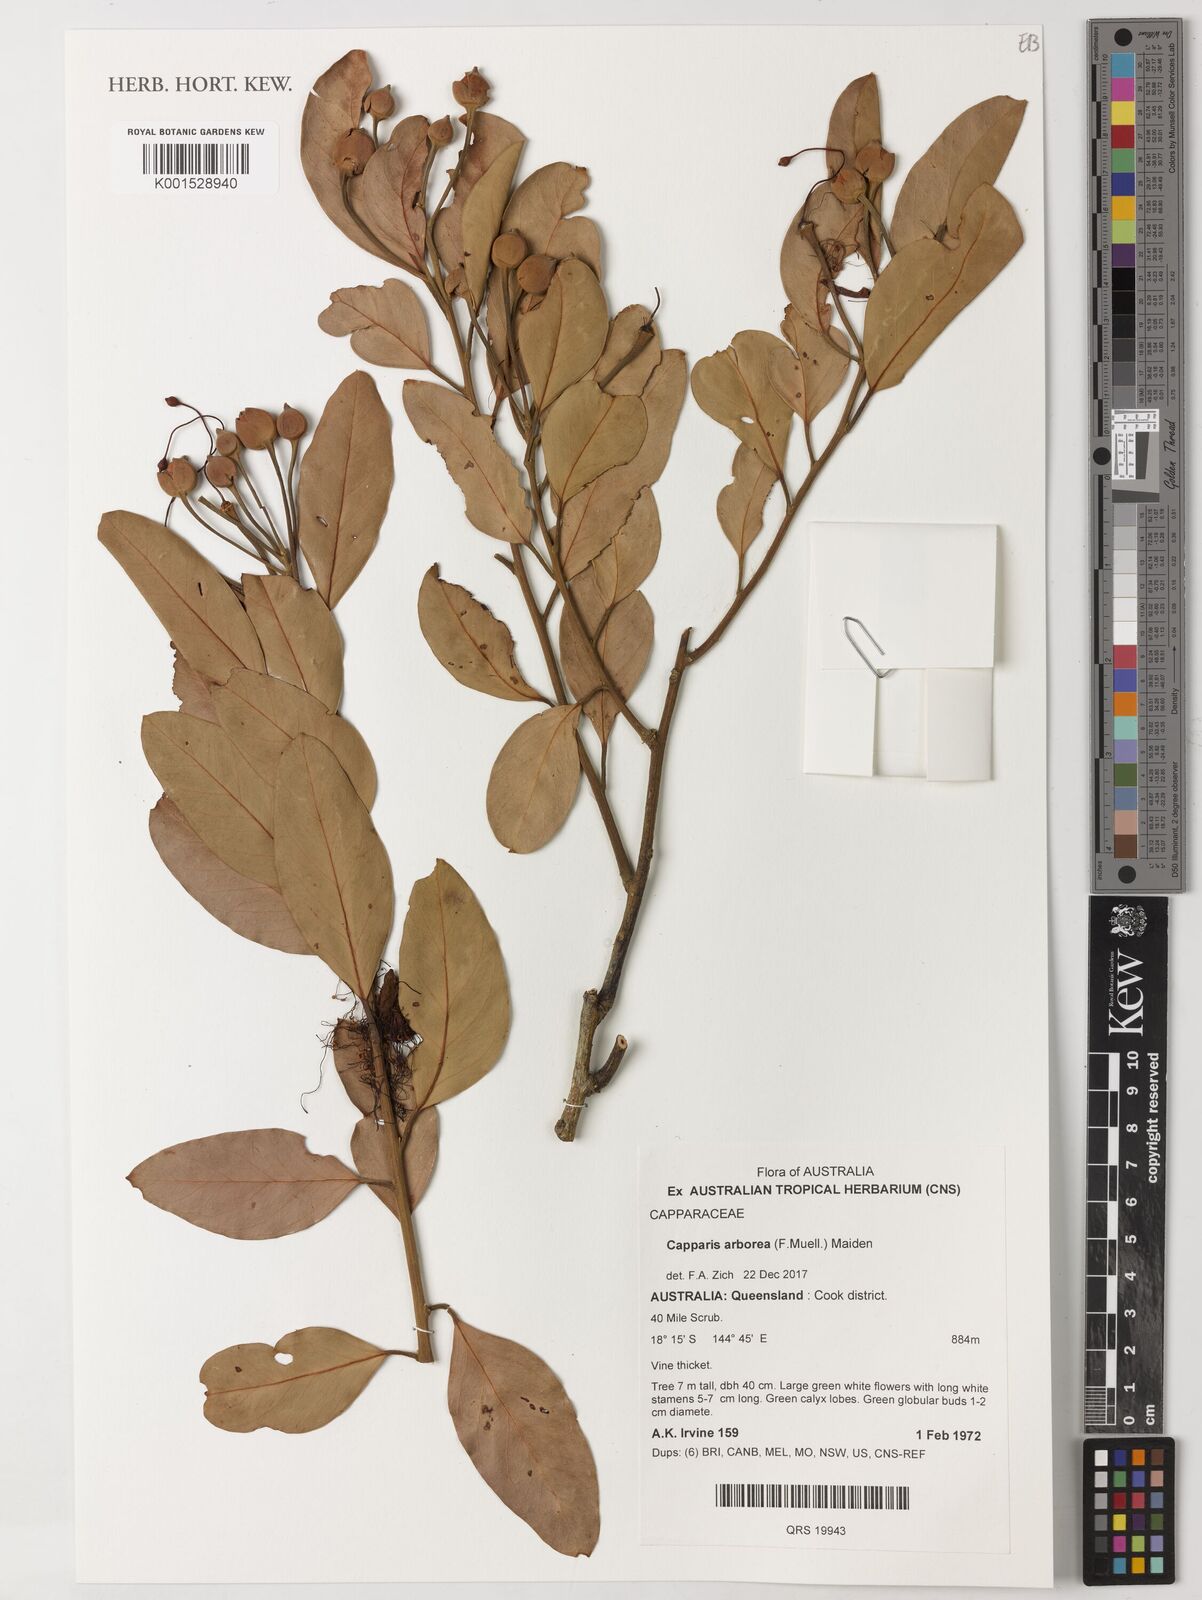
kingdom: Plantae
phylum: Tracheophyta
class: Magnoliopsida
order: Brassicales
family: Capparaceae
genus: Capparis
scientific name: Capparis arborea
